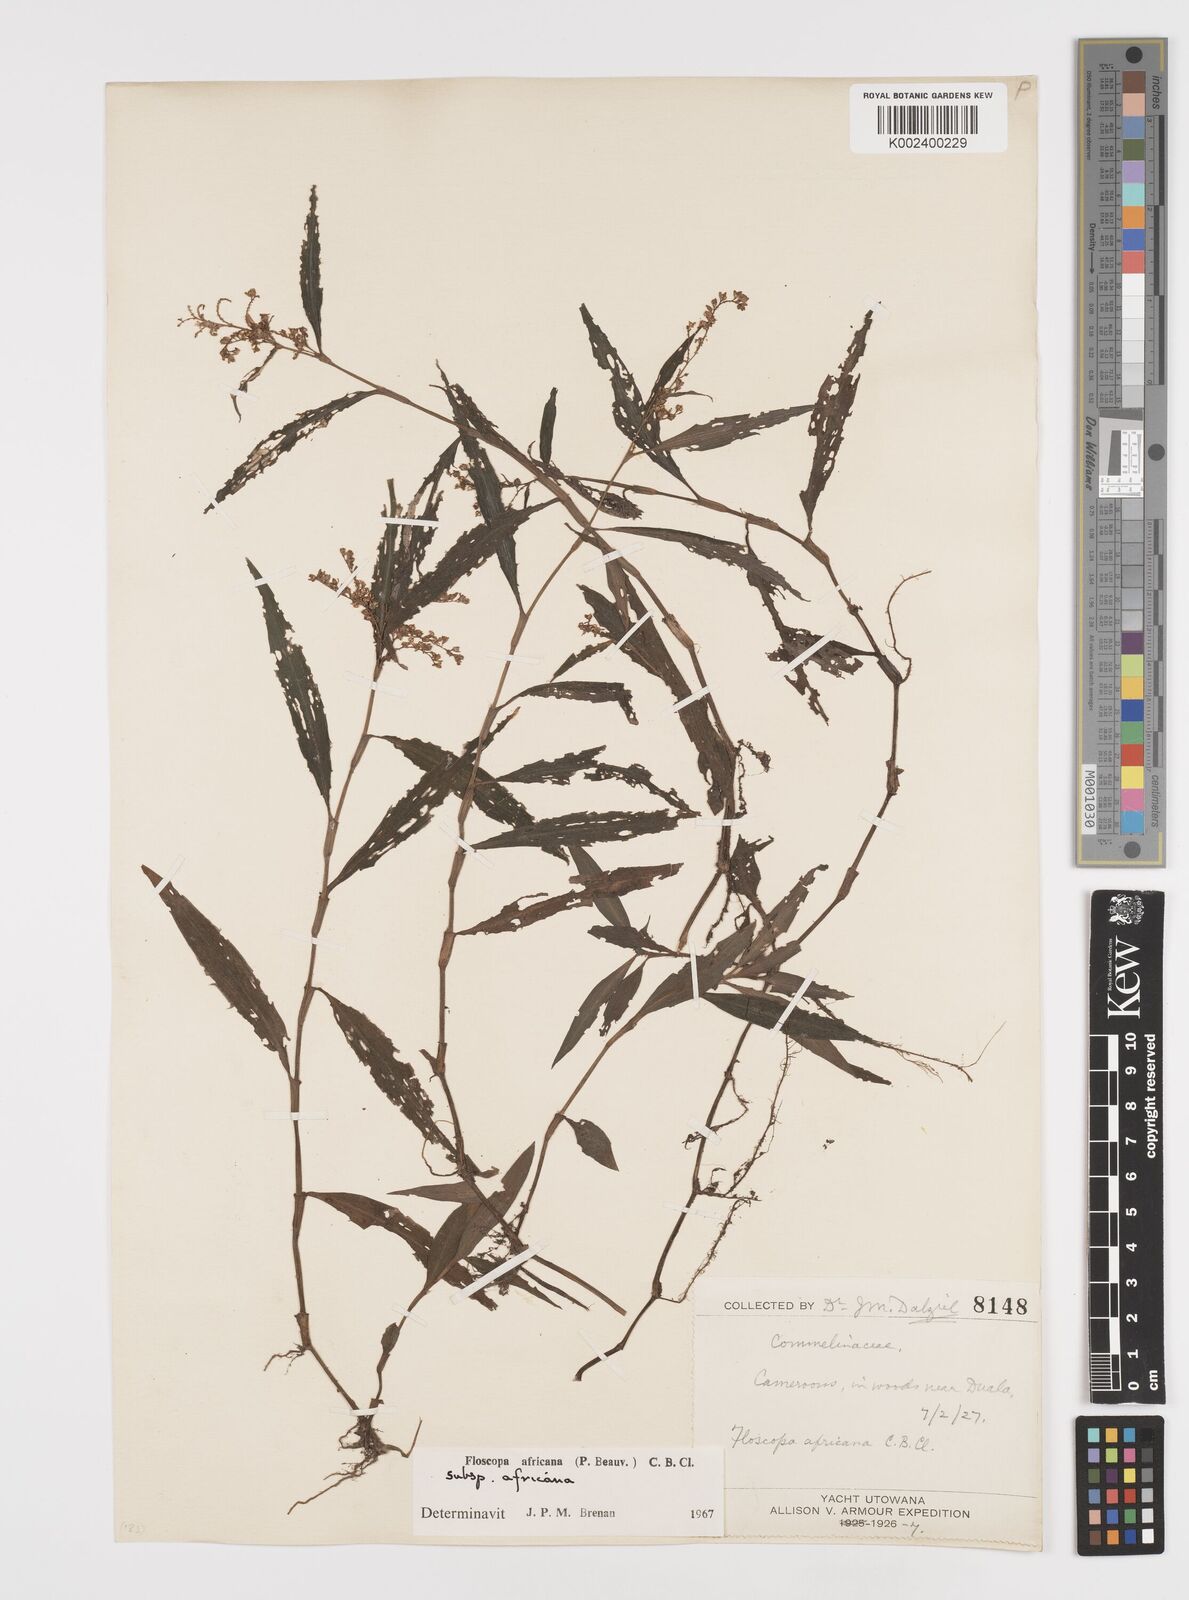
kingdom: Plantae
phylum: Tracheophyta
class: Liliopsida
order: Commelinales
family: Commelinaceae
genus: Floscopa
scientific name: Floscopa africana
